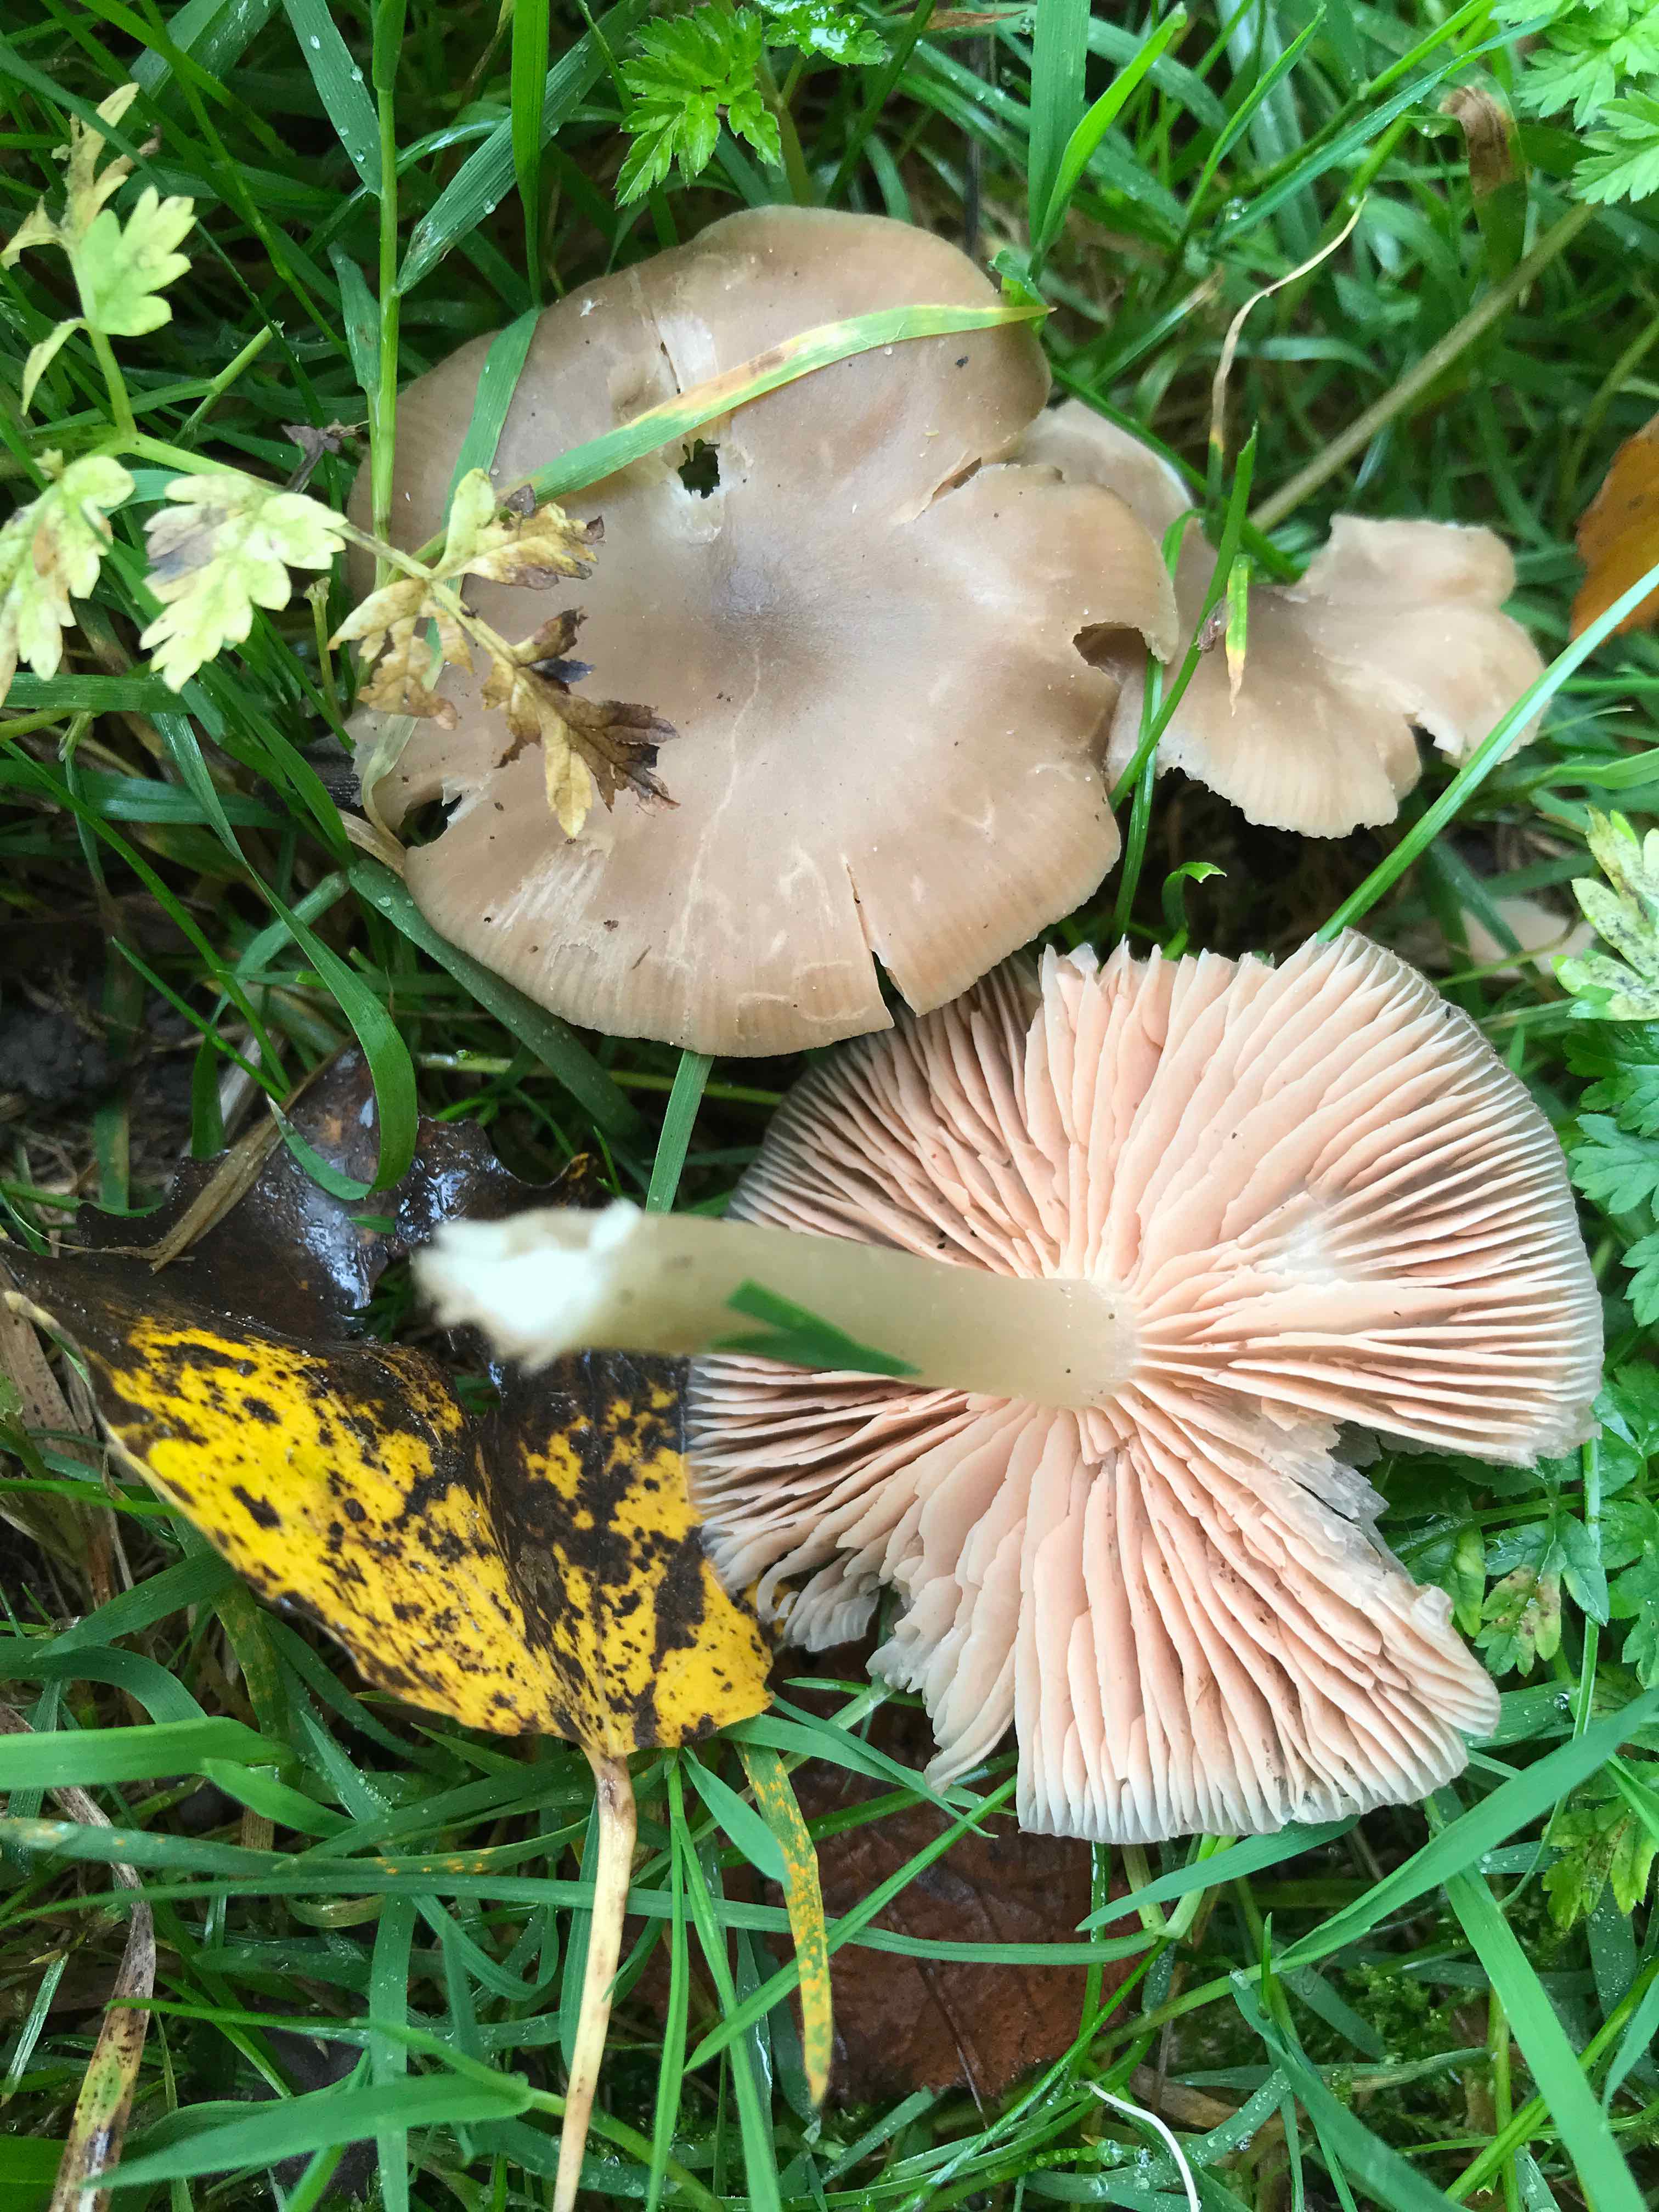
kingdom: Fungi
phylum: Basidiomycota
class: Agaricomycetes
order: Agaricales
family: Entolomataceae
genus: Entoloma
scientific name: Entoloma
